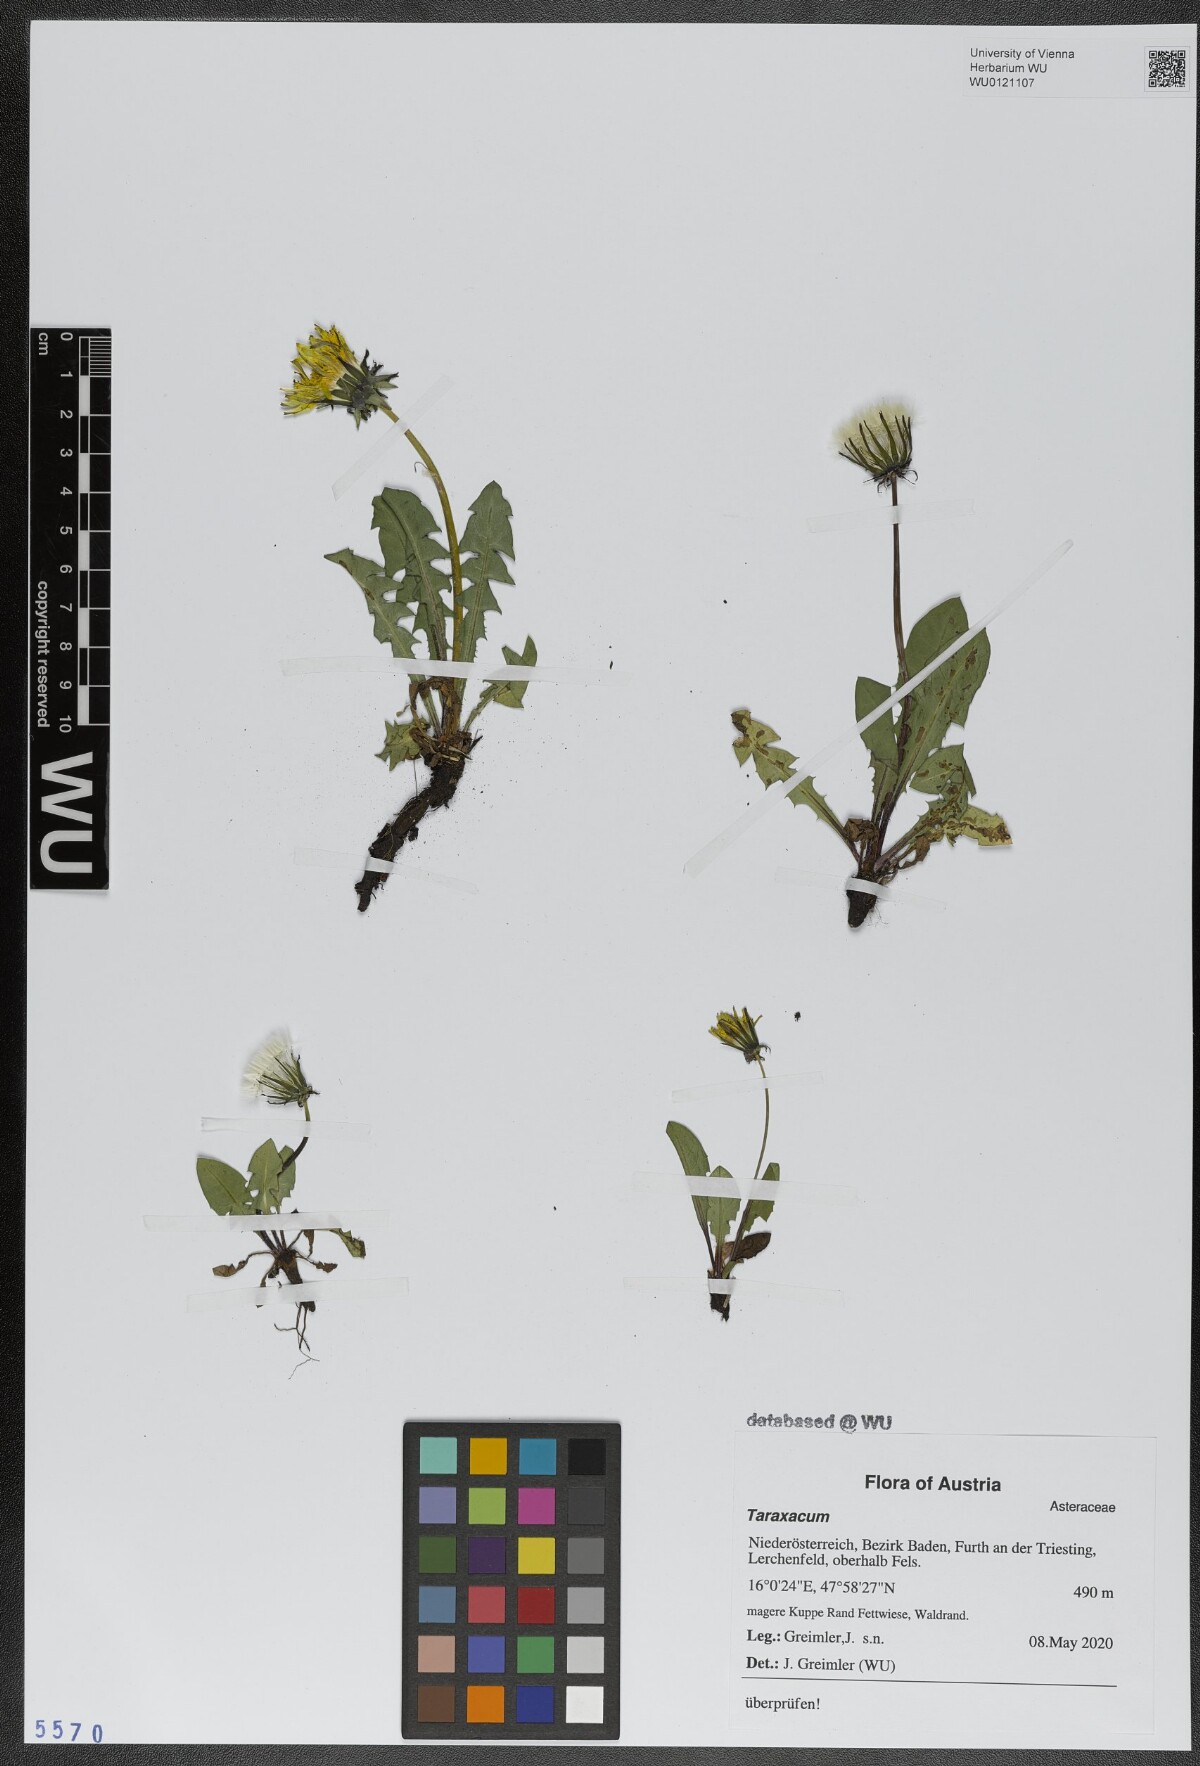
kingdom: Plantae
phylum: Tracheophyta
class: Magnoliopsida
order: Asterales
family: Asteraceae
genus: Taraxacum
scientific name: Taraxacum
